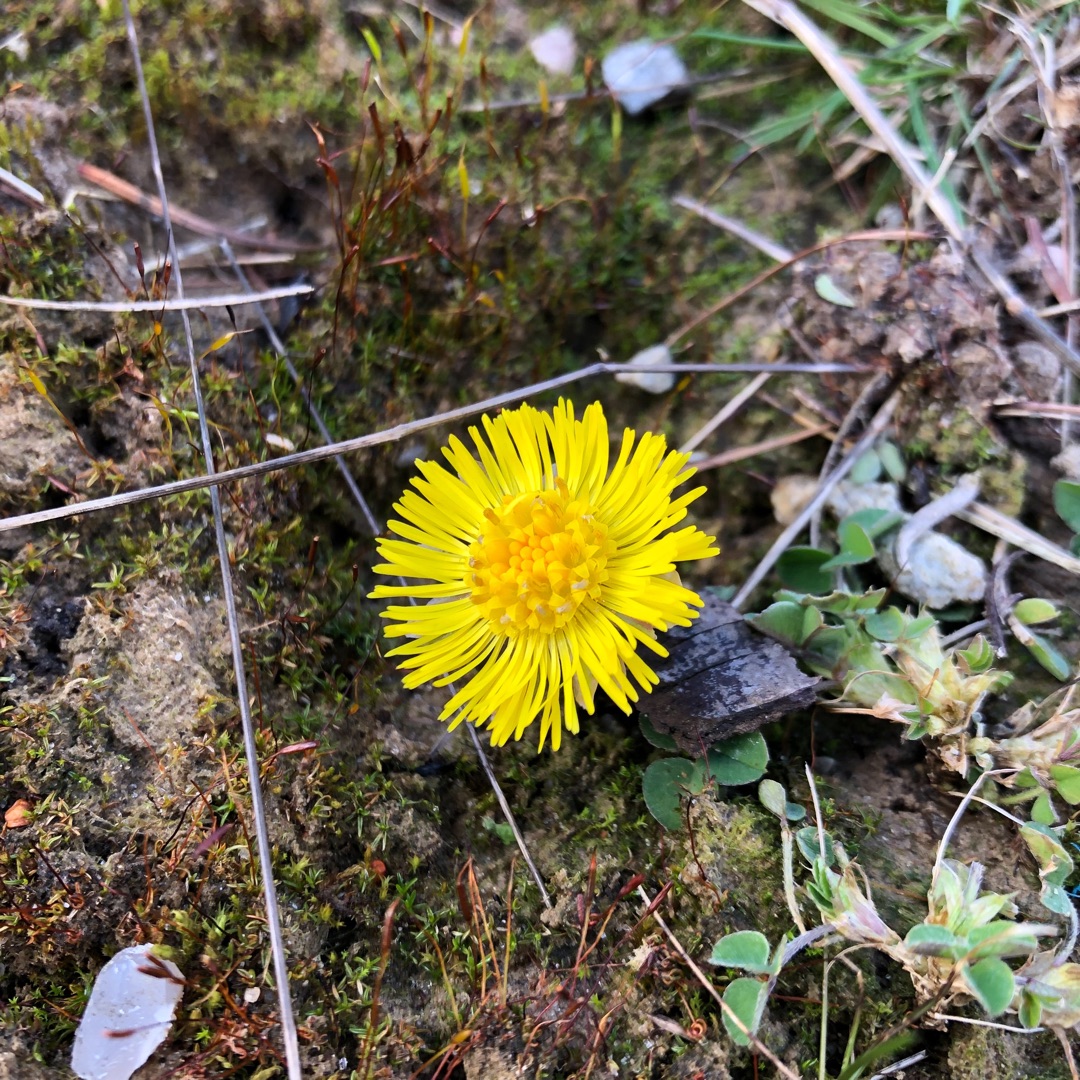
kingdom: Plantae
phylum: Tracheophyta
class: Magnoliopsida
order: Asterales
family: Asteraceae
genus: Tussilago
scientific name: Tussilago farfara
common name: Følfod
